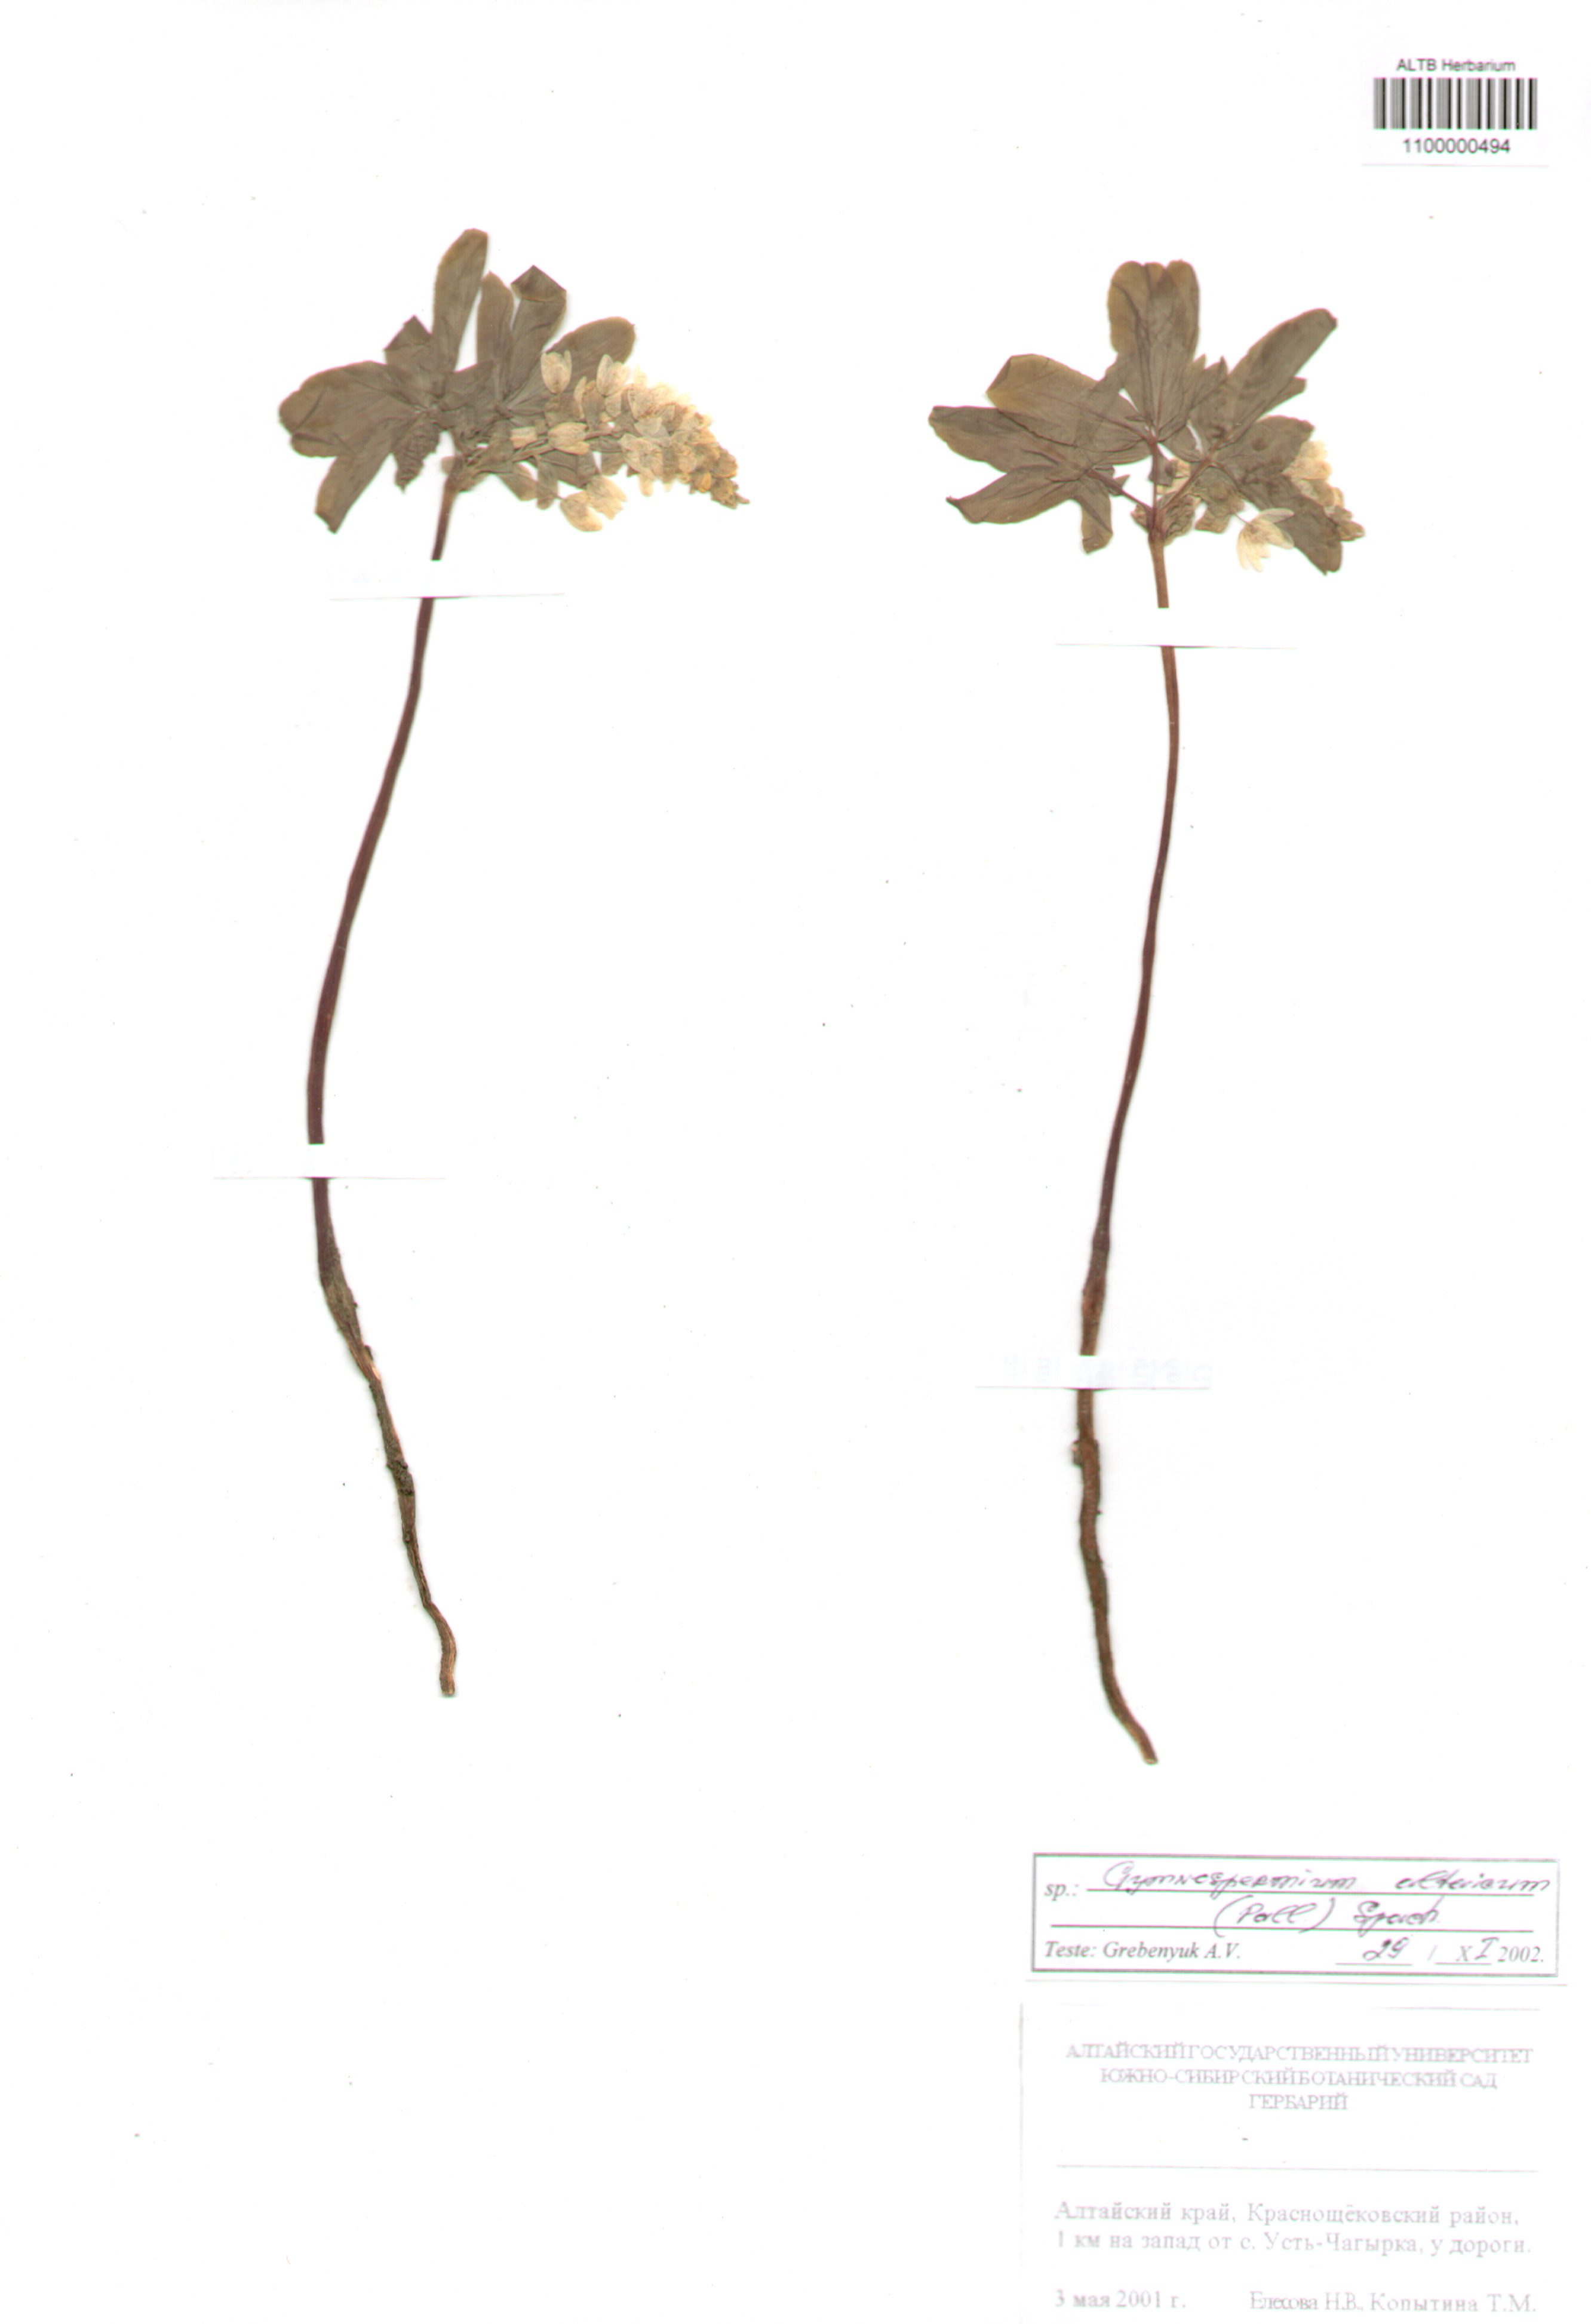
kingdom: Plantae
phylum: Tracheophyta
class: Magnoliopsida
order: Ranunculales
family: Berberidaceae
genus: Gymnospermium
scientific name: Gymnospermium altaicum
